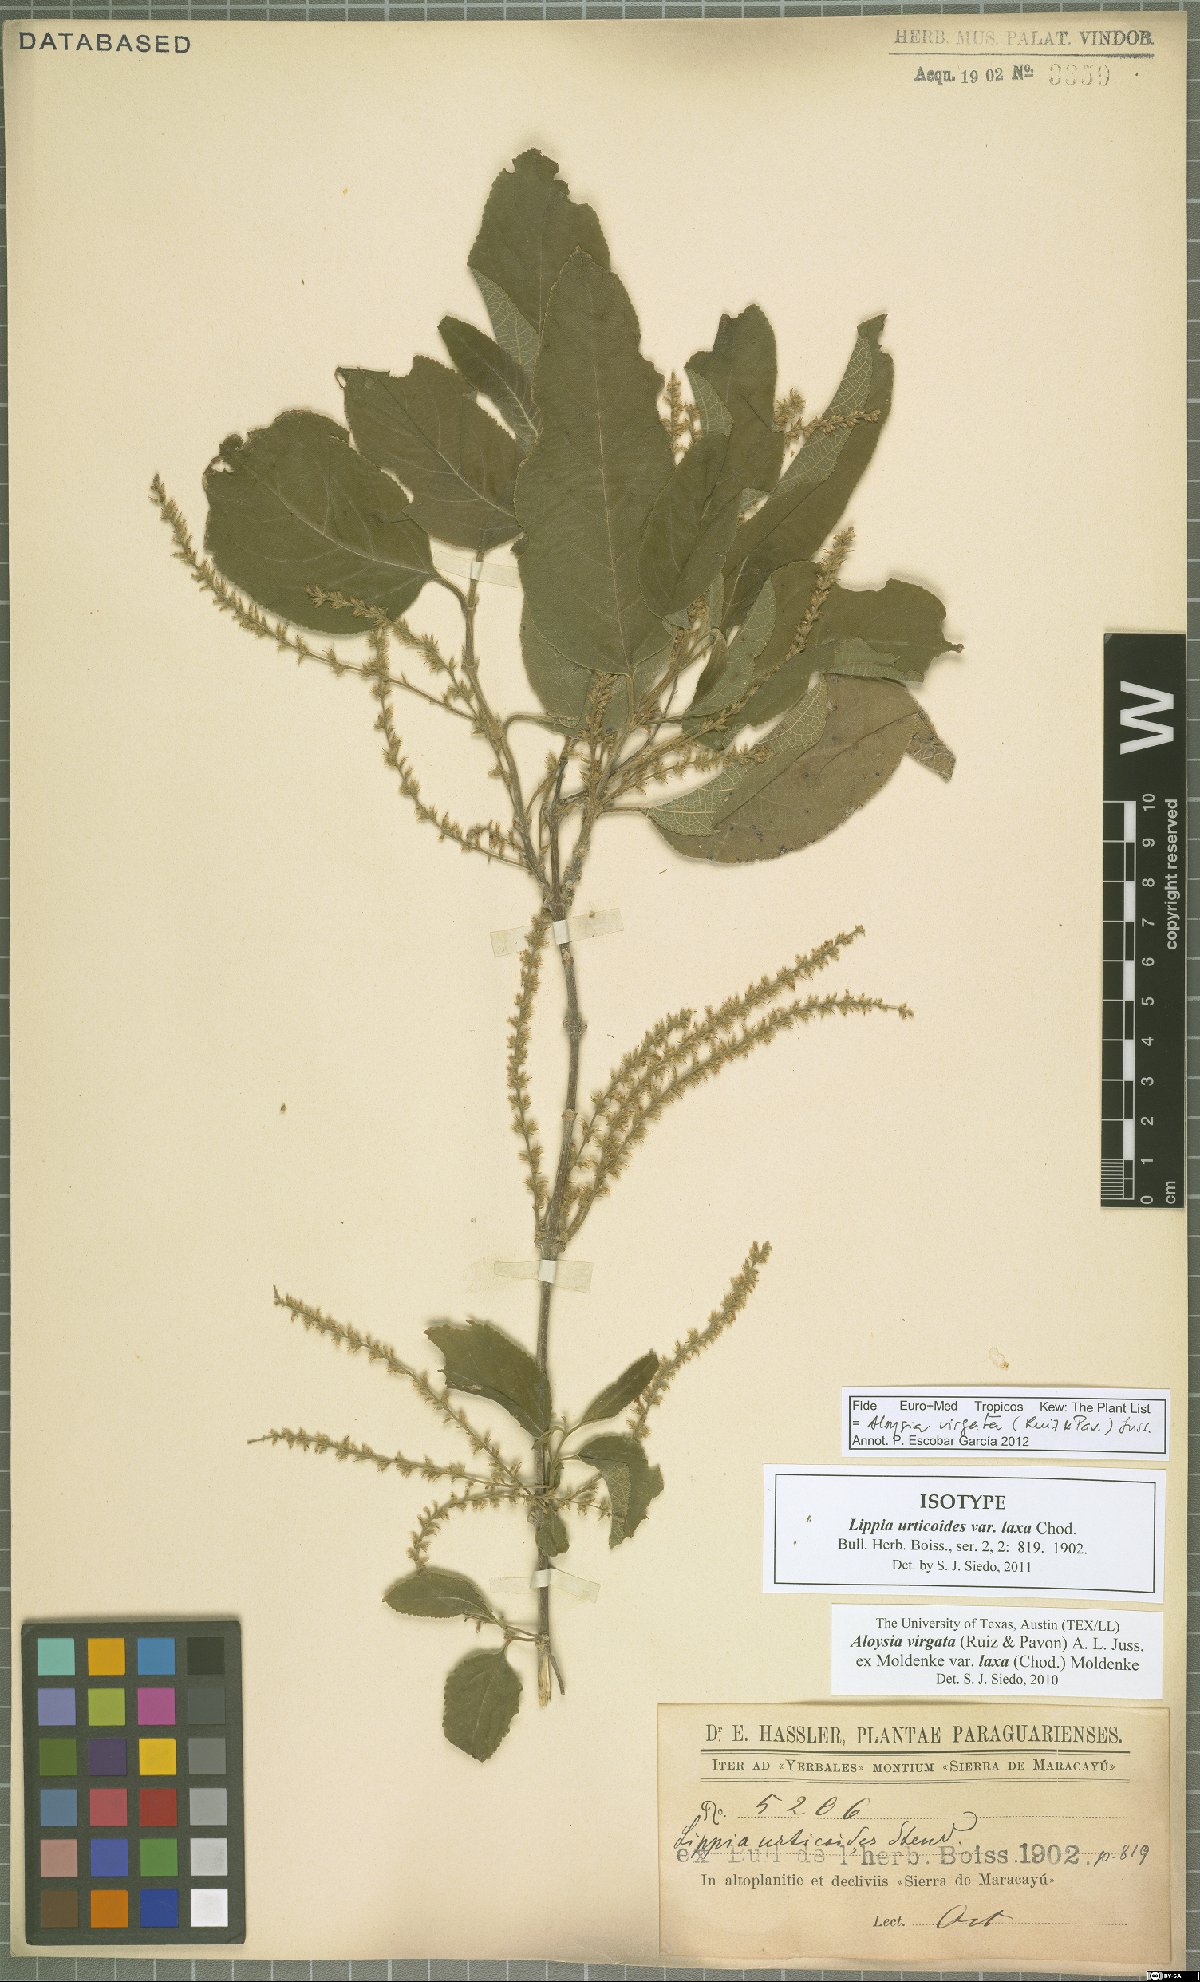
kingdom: Plantae
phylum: Tracheophyta
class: Magnoliopsida
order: Lamiales
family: Verbenaceae
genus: Aloysia
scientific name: Aloysia virgata
